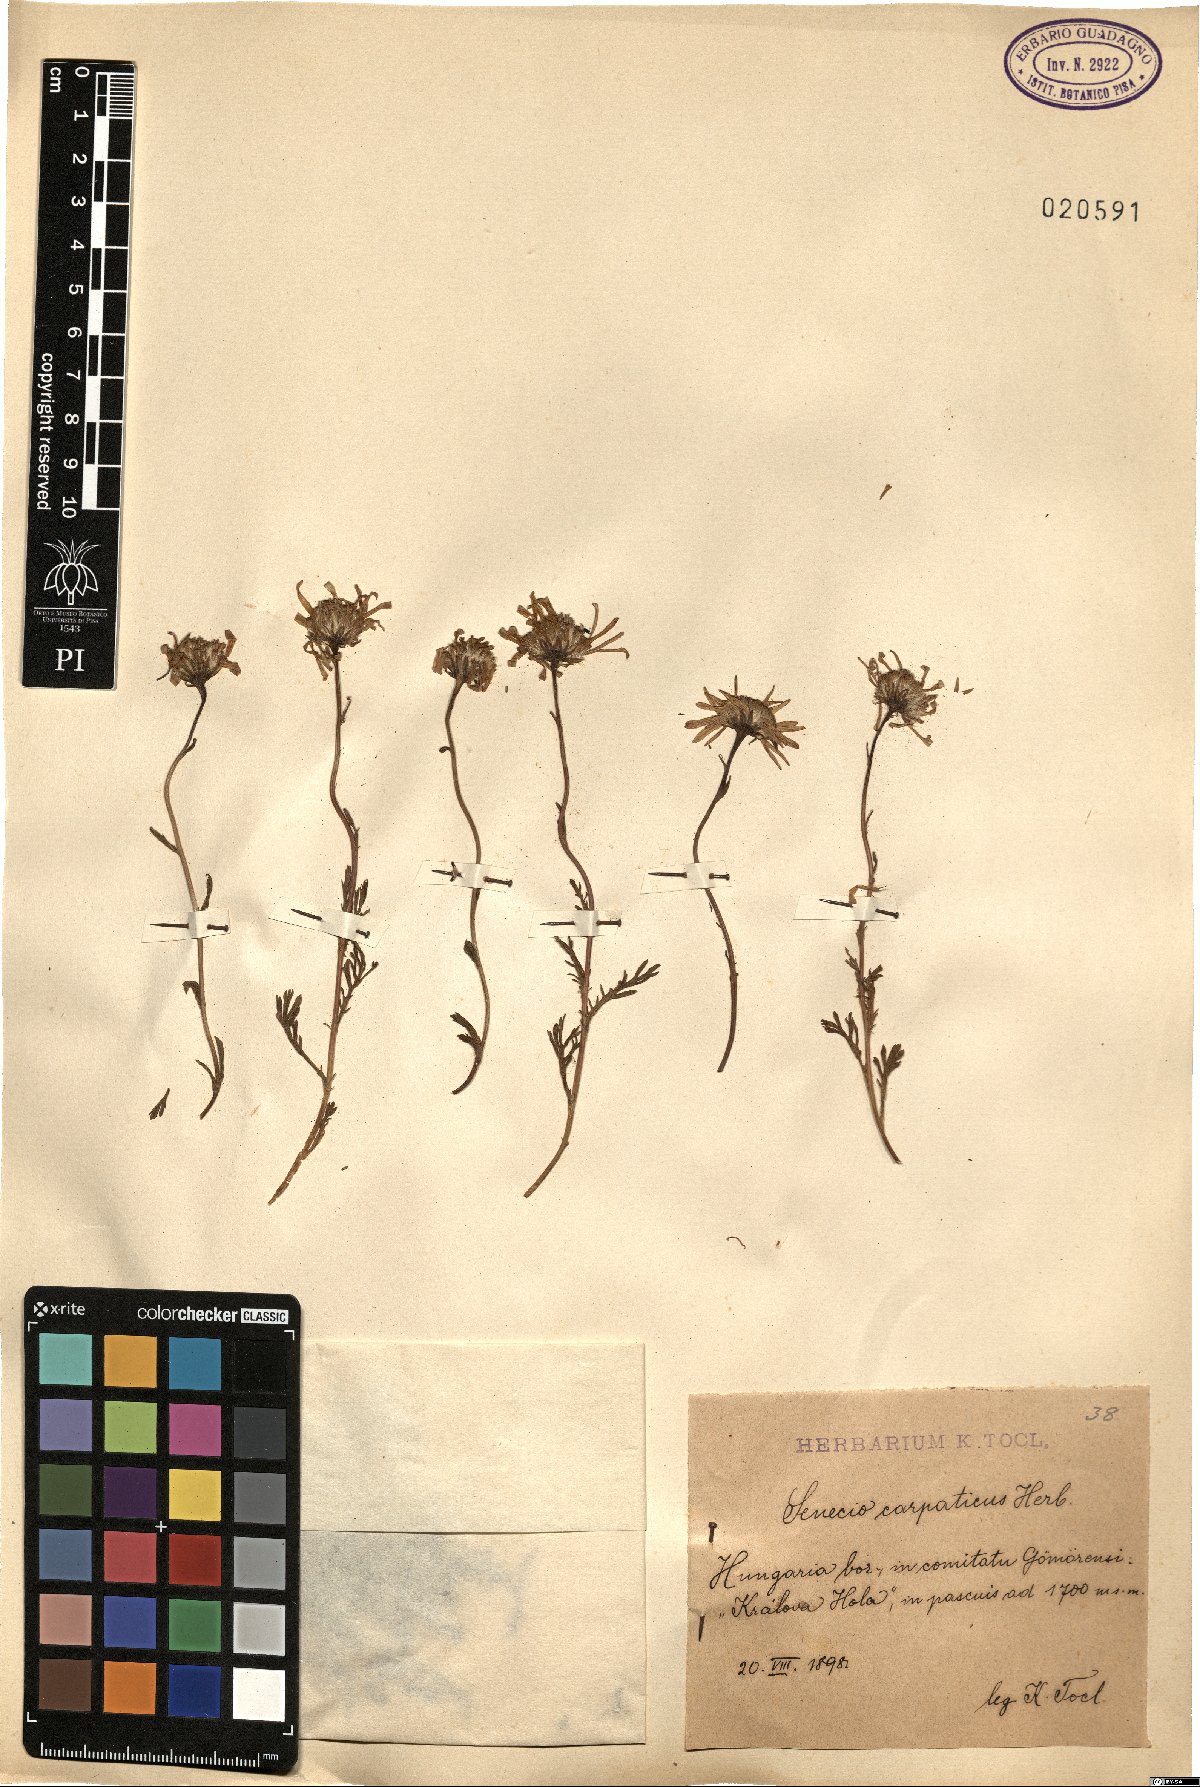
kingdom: Plantae
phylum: Tracheophyta
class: Magnoliopsida
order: Asterales
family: Asteraceae
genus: Jacobaea
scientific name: Jacobaea abrotanifolia
